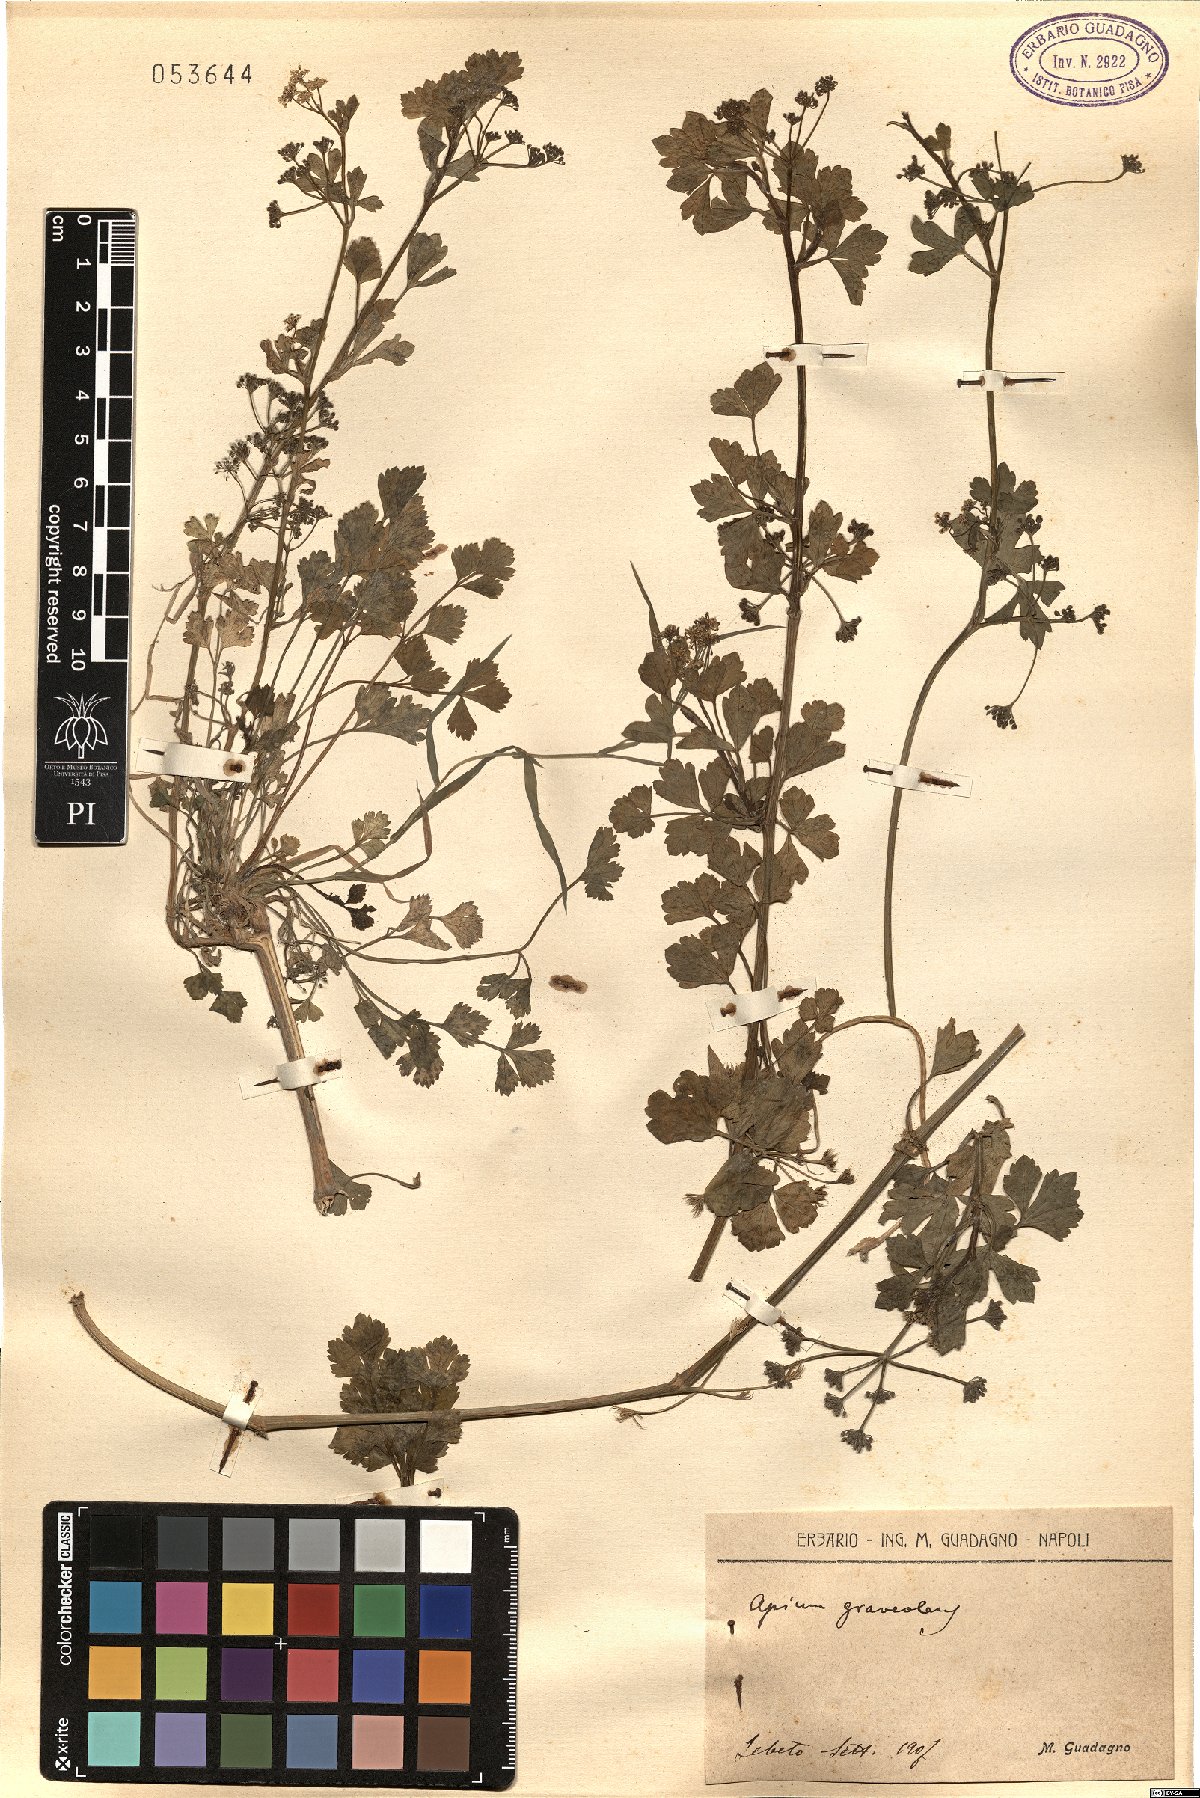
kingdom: Plantae
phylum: Tracheophyta
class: Magnoliopsida
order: Apiales
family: Apiaceae
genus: Apium
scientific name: Apium graveolens
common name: Wild celery
